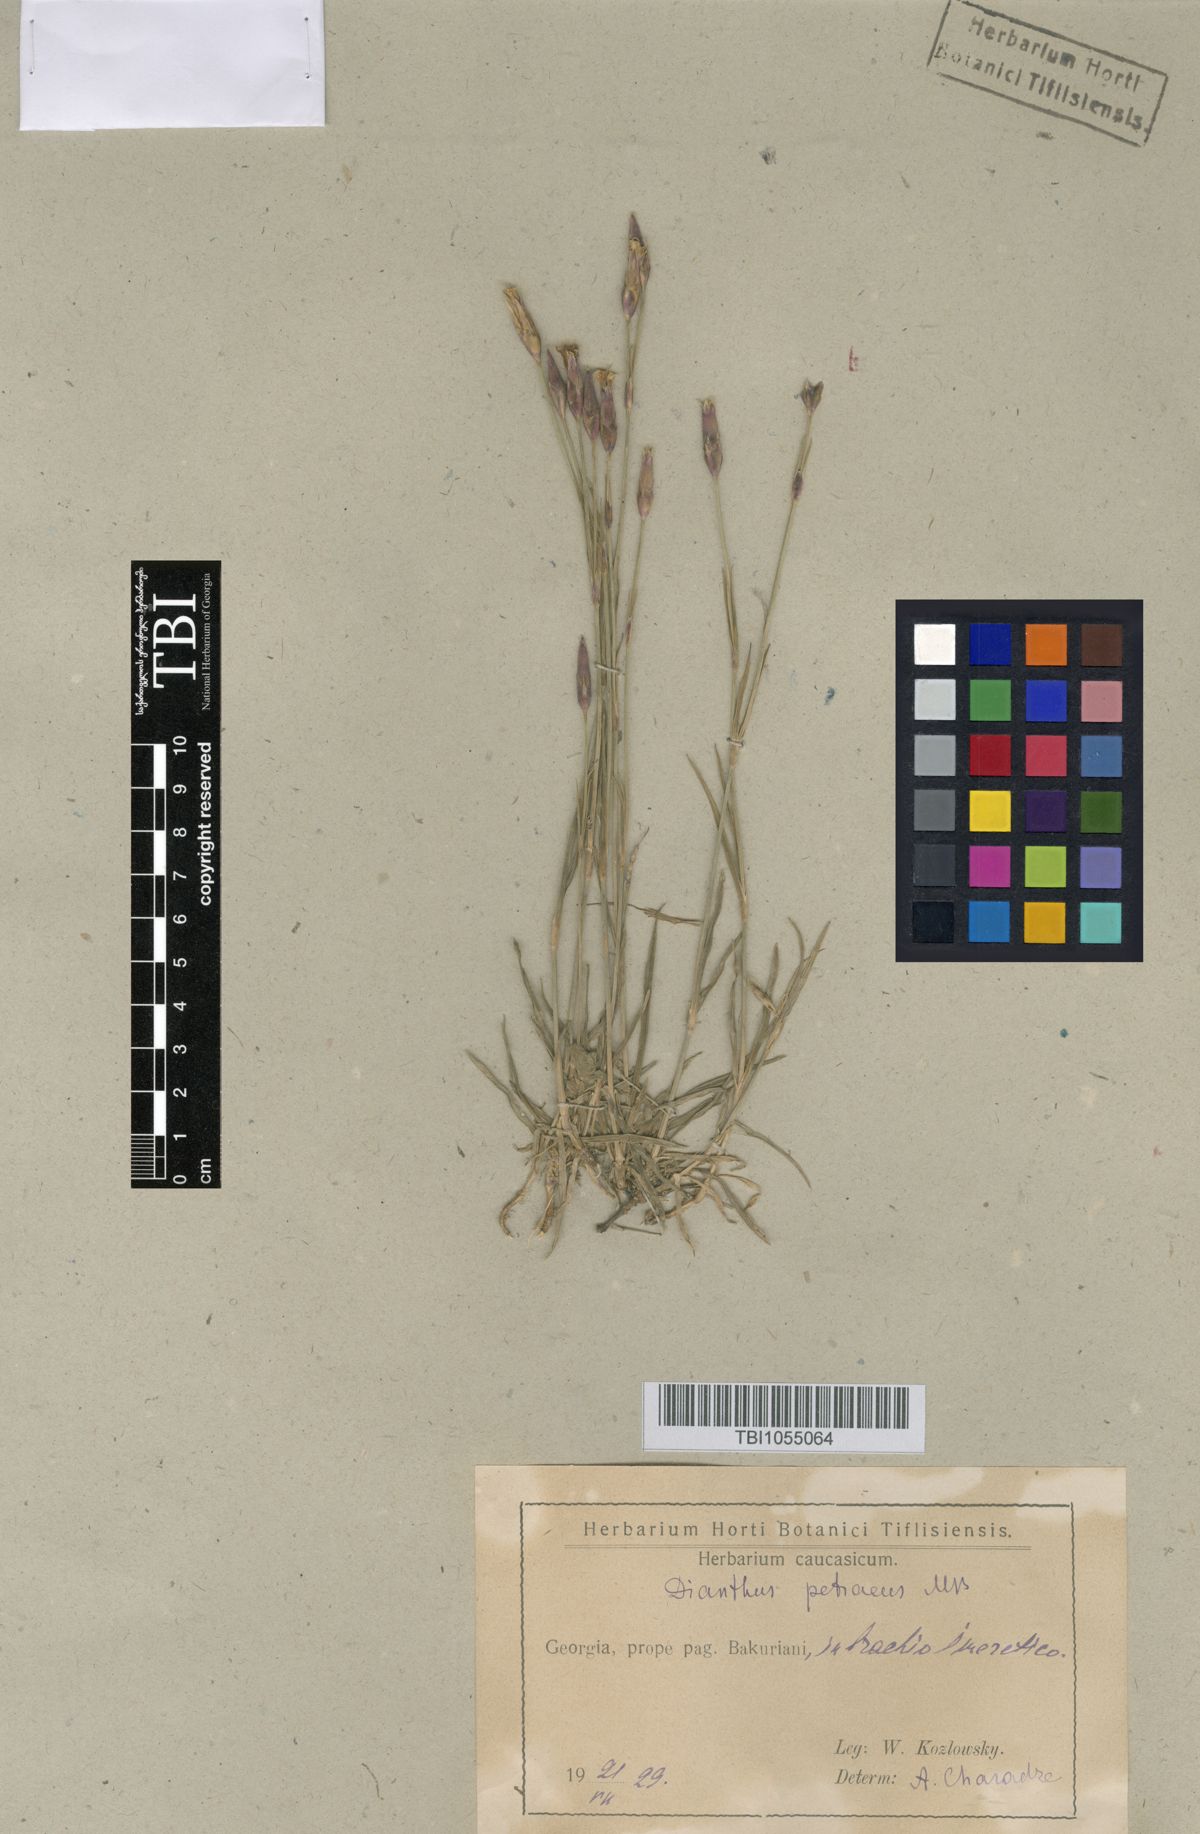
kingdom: Plantae
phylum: Tracheophyta
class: Magnoliopsida
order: Caryophyllales
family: Caryophyllaceae
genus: Dianthus
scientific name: Dianthus cretaceus
